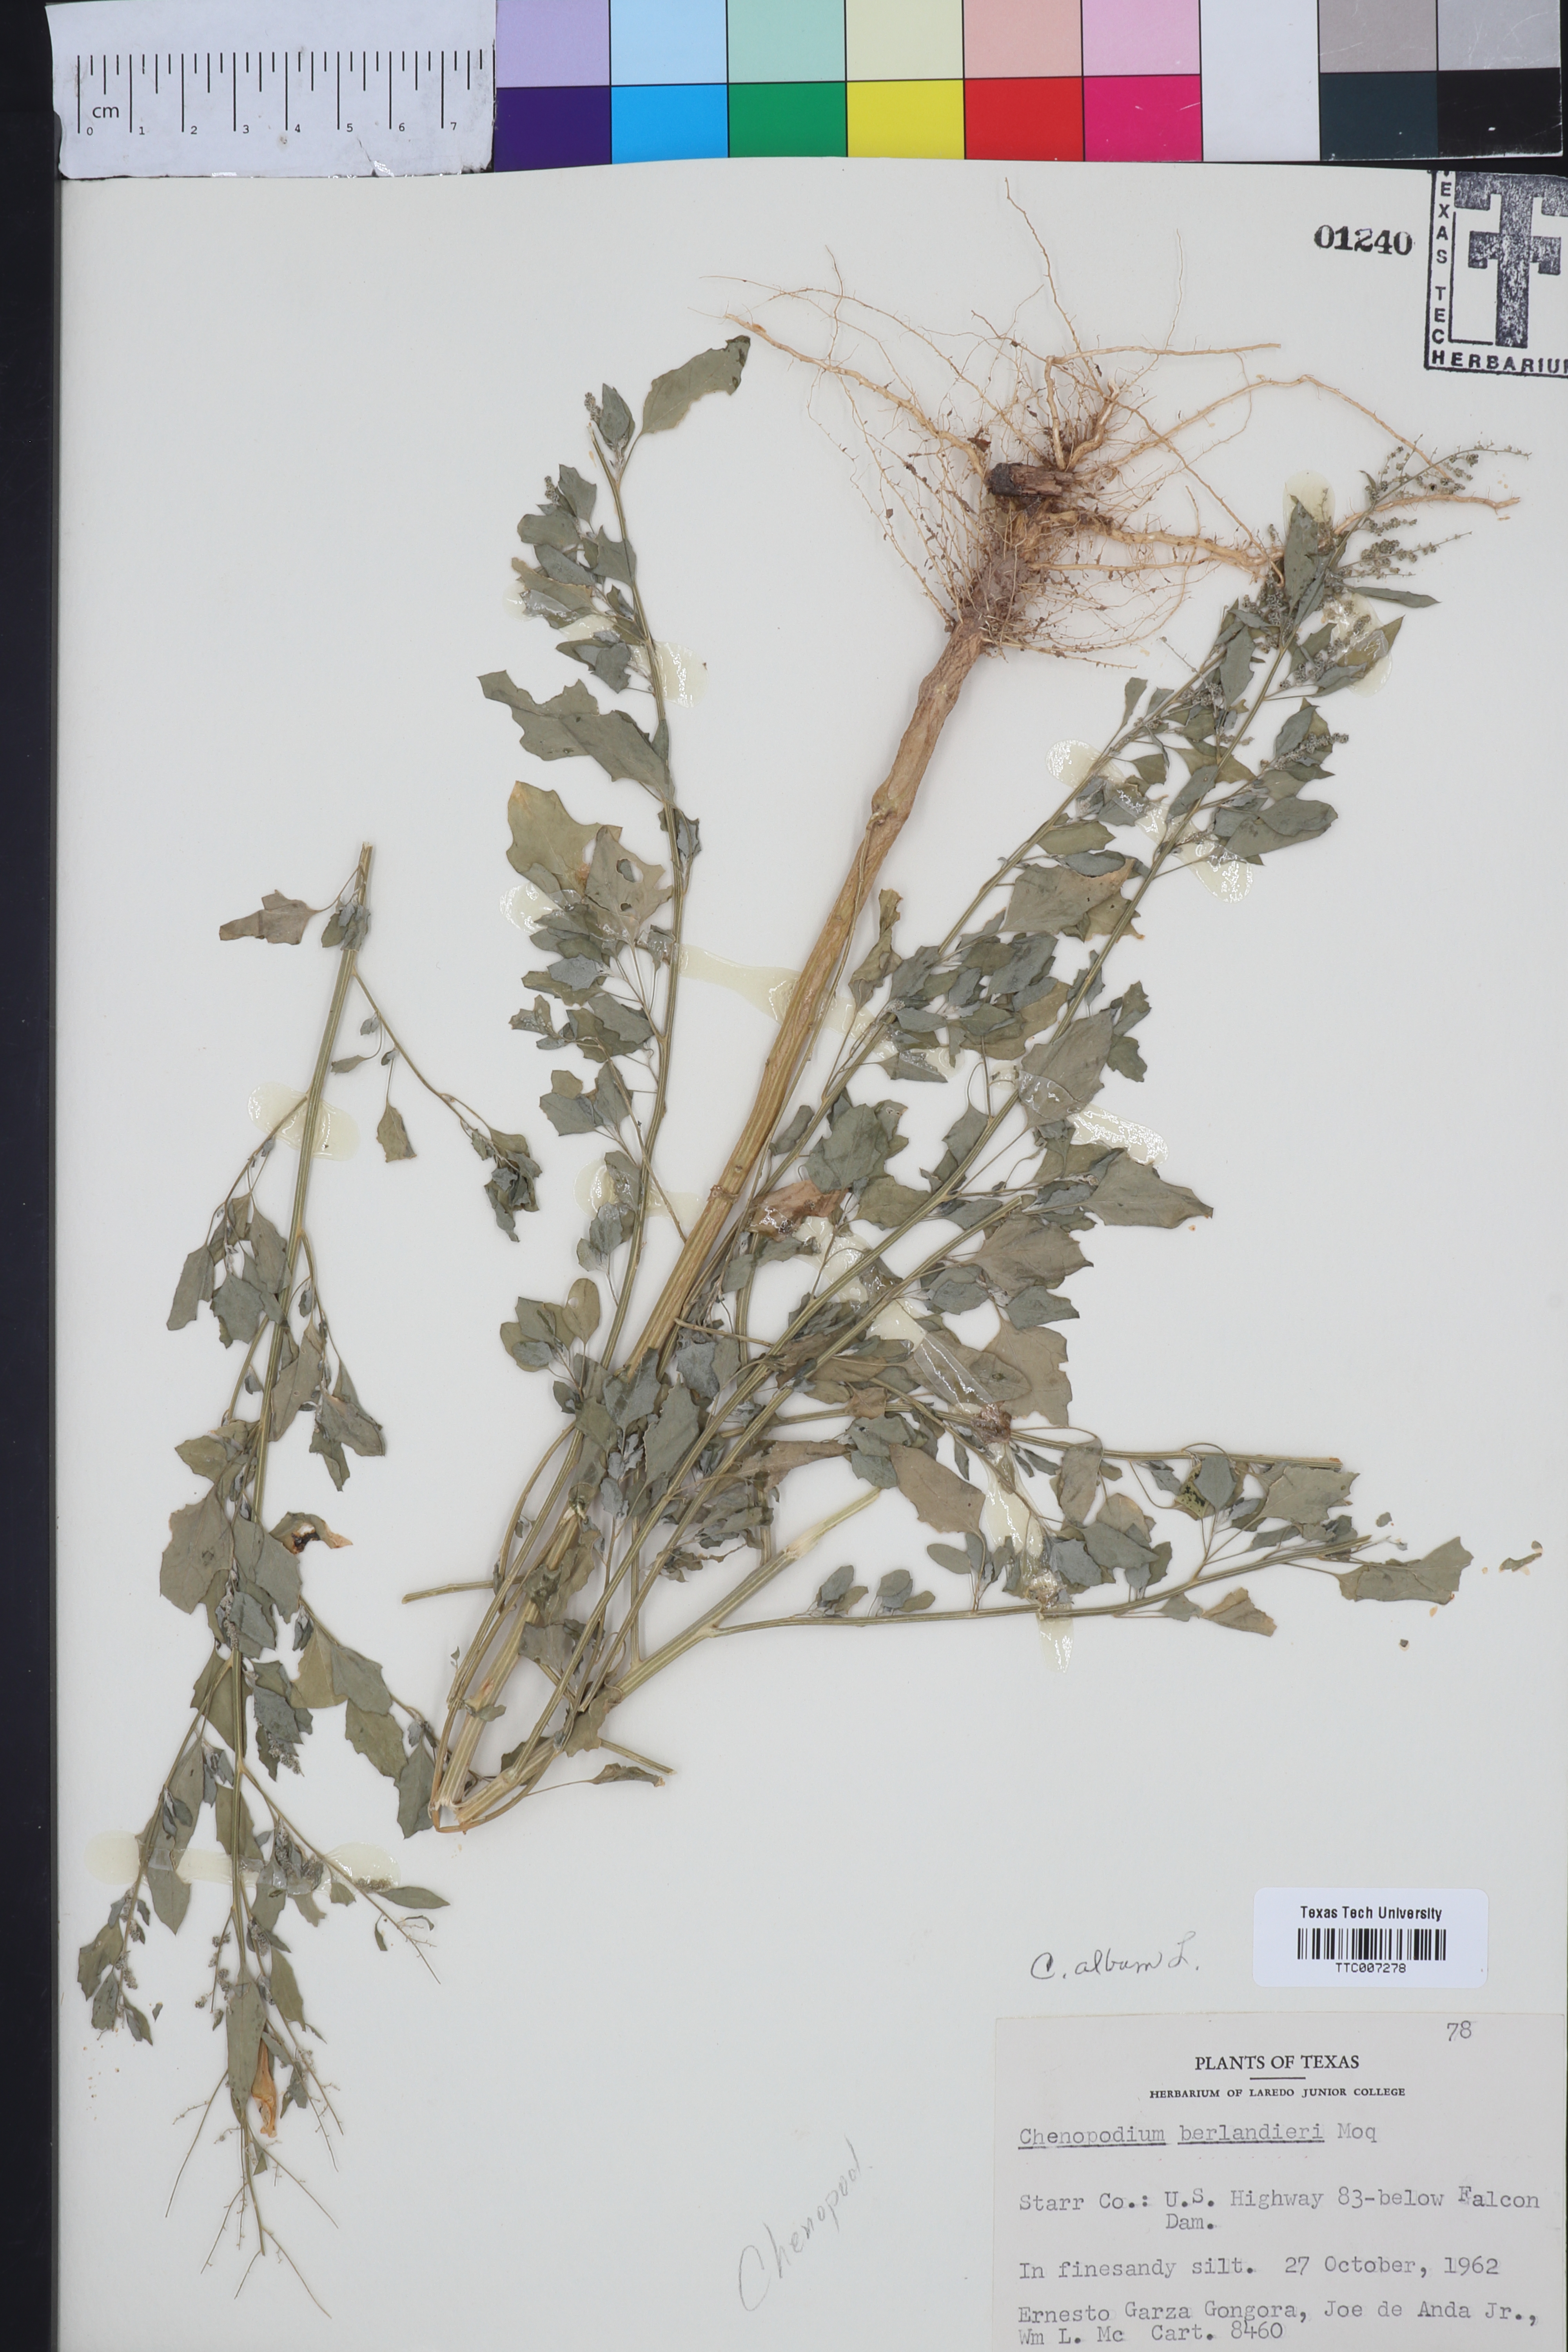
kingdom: Plantae
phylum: Tracheophyta
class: Magnoliopsida
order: Caryophyllales
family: Amaranthaceae
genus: Chenopodium
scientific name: Chenopodium album
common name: Fat-hen
